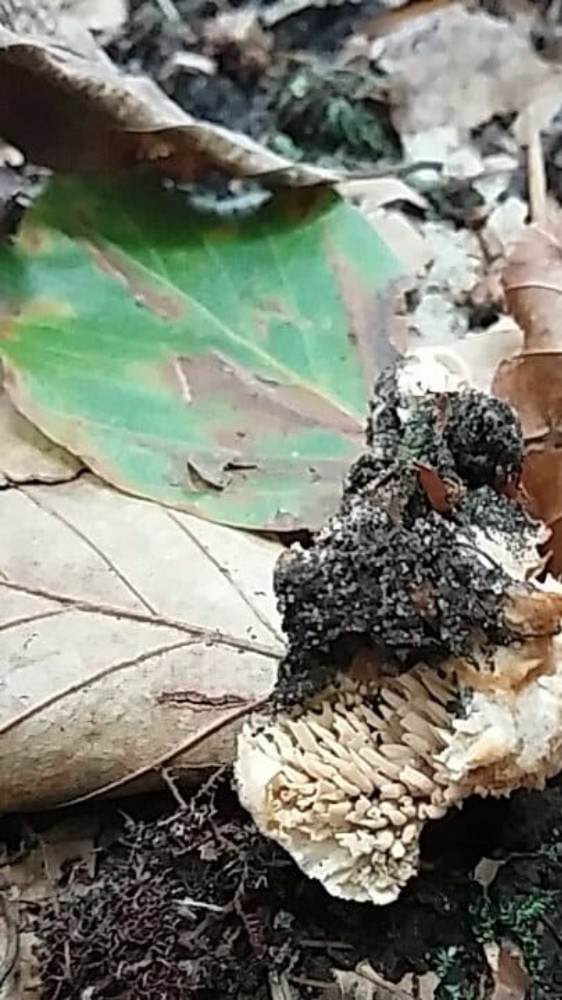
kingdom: Fungi
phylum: Basidiomycota
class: Agaricomycetes
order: Cantharellales
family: Hydnaceae
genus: Hydnum
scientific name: Hydnum repandum
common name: almindelig pigsvamp
